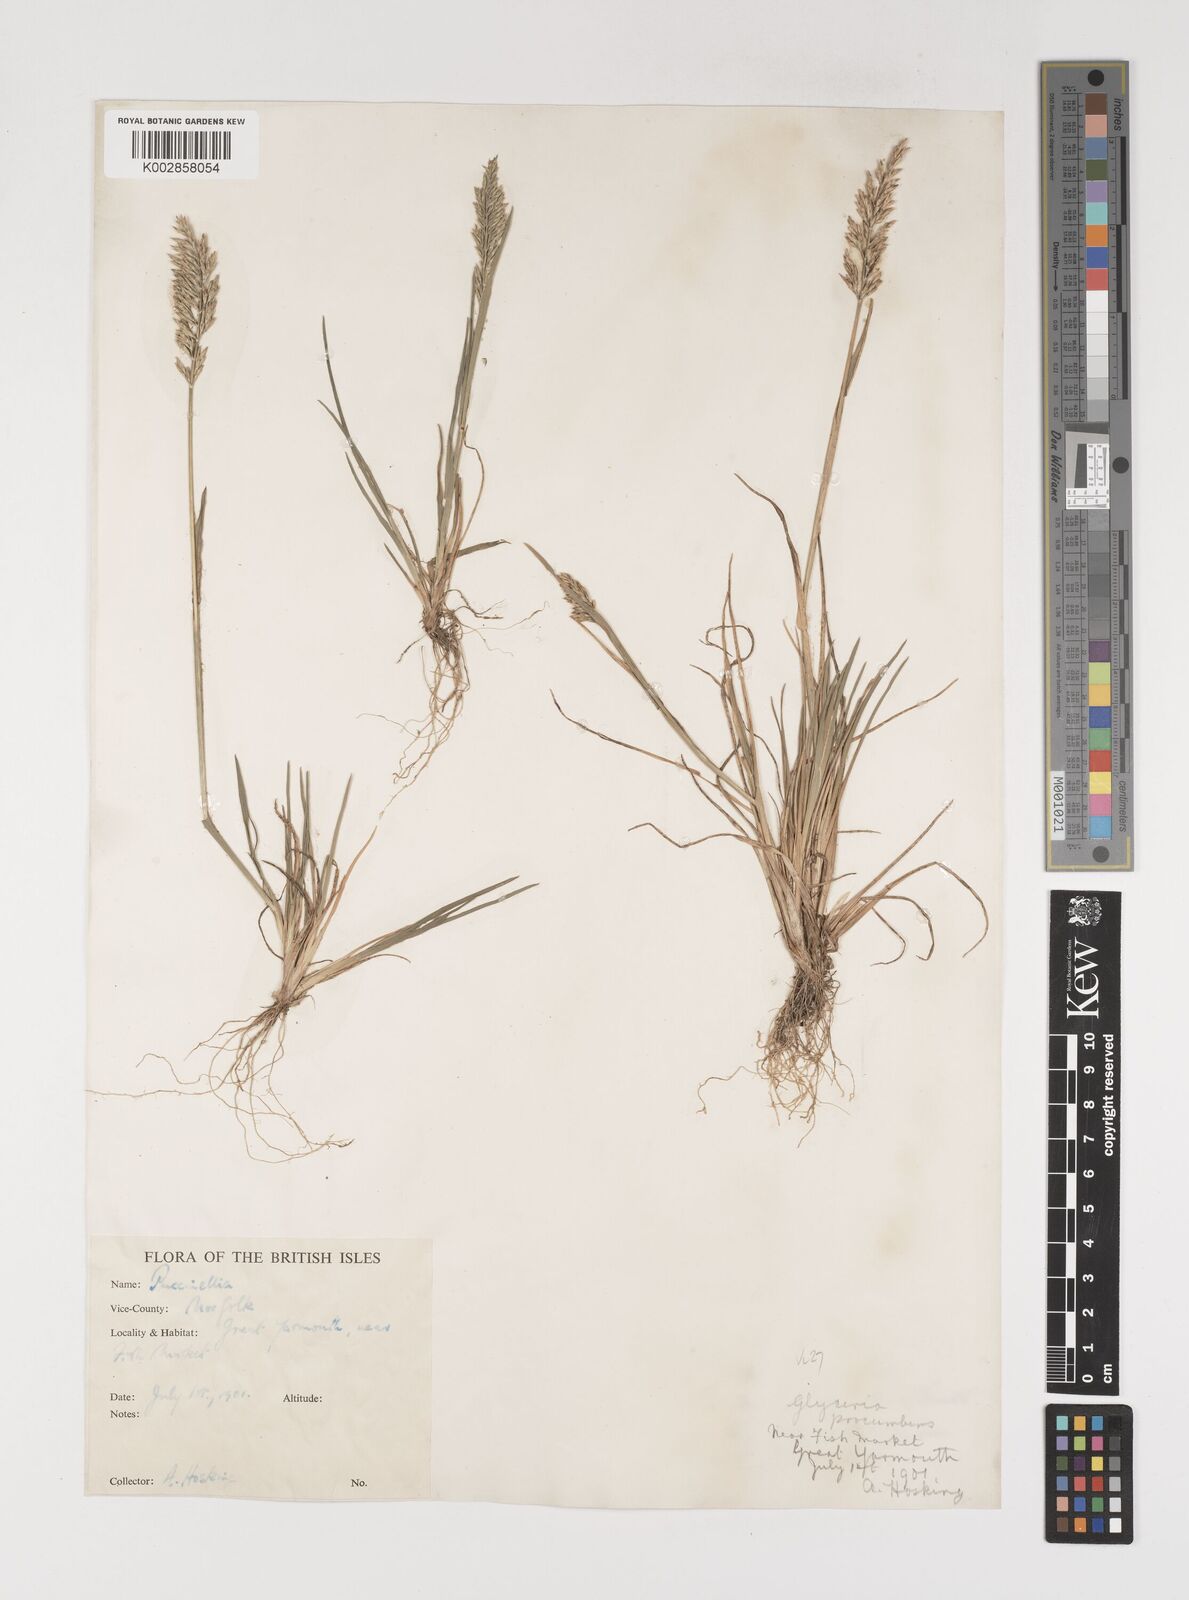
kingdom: Plantae
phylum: Tracheophyta
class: Liliopsida
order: Poales
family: Poaceae
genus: Puccinellia
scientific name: Puccinellia rupestris
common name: Stiff saltmarsh-grass
